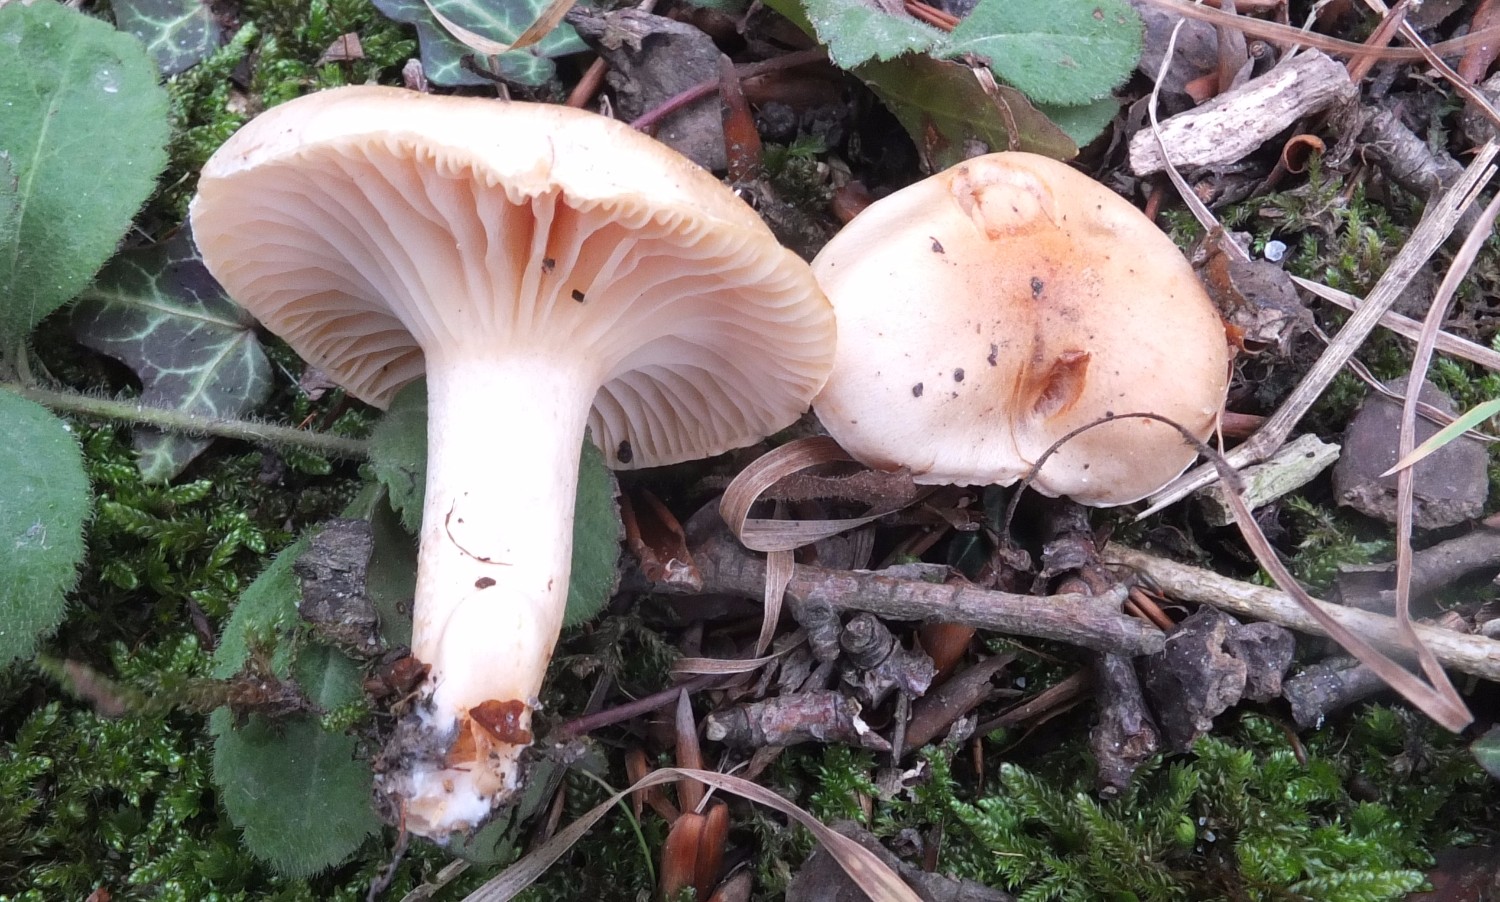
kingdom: Fungi
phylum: Basidiomycota
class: Agaricomycetes
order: Agaricales
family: Hygrophoraceae
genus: Cuphophyllus
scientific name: Cuphophyllus pratensis
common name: eng-vokshat
